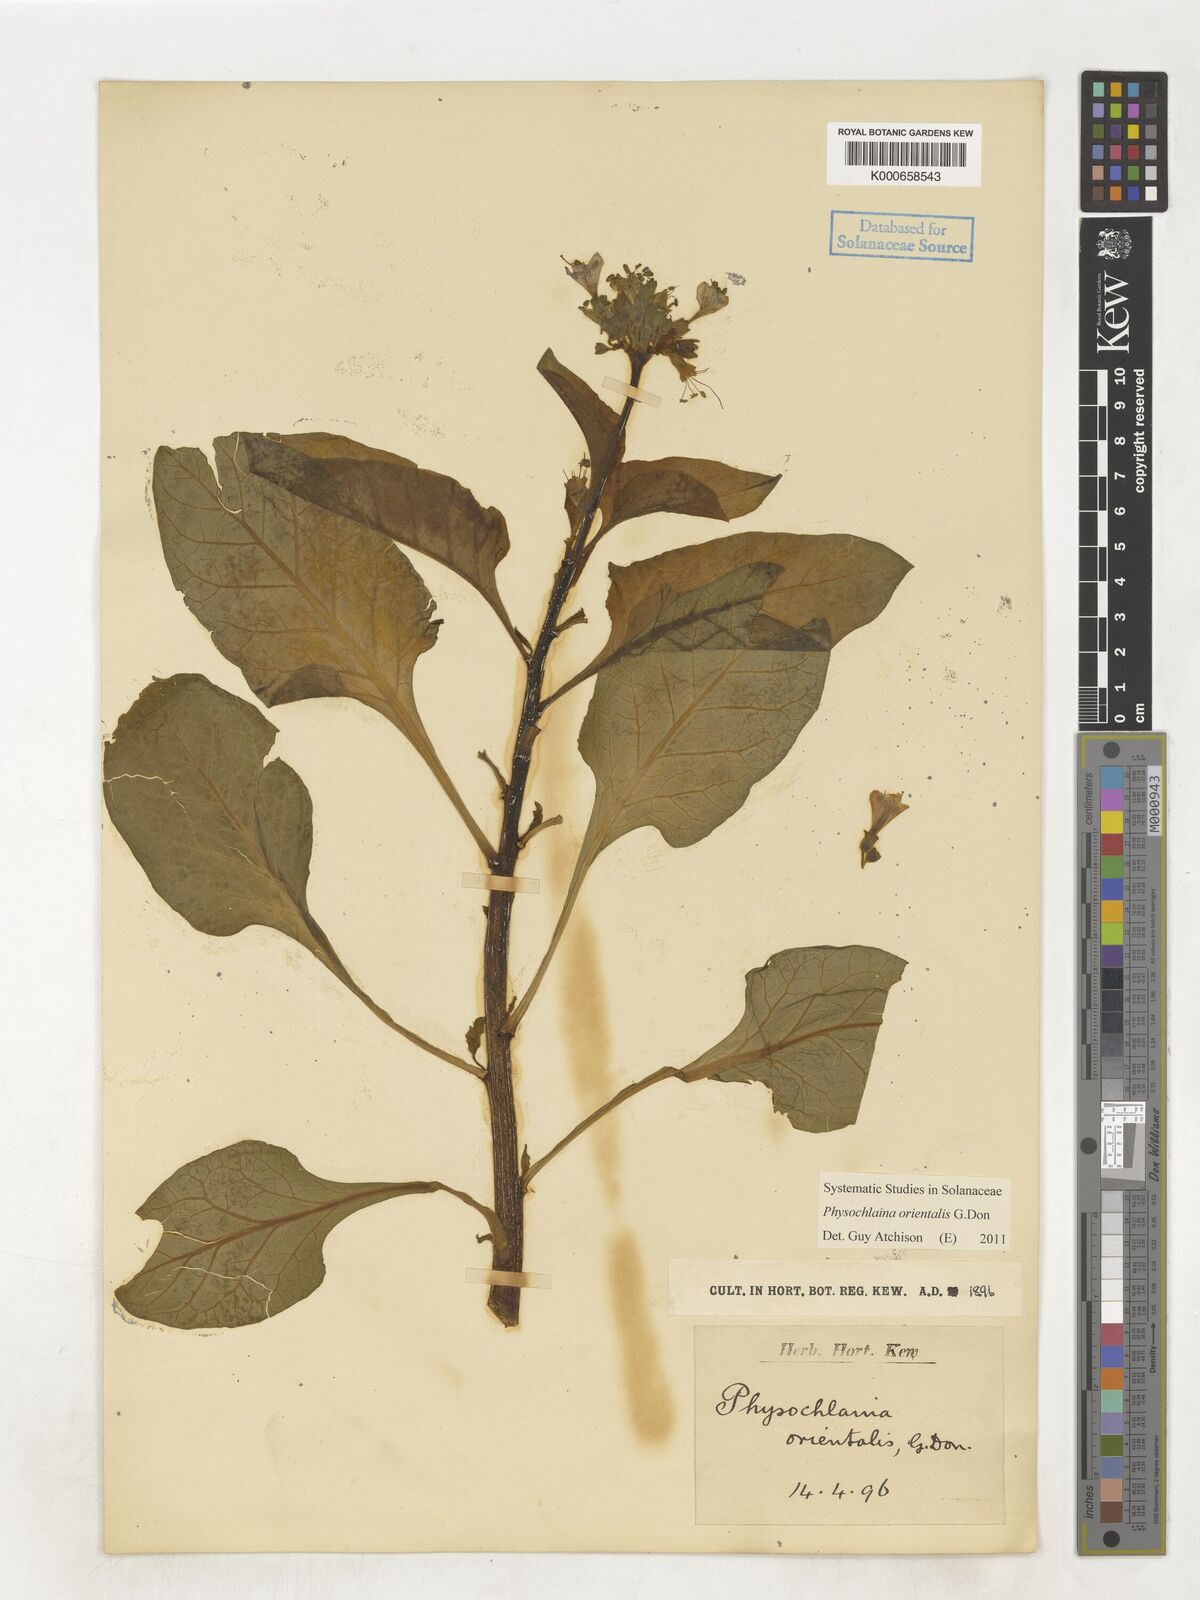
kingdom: Plantae
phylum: Tracheophyta
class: Magnoliopsida
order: Solanales
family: Solanaceae
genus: Physochlaina
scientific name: Physochlaina orientalis
